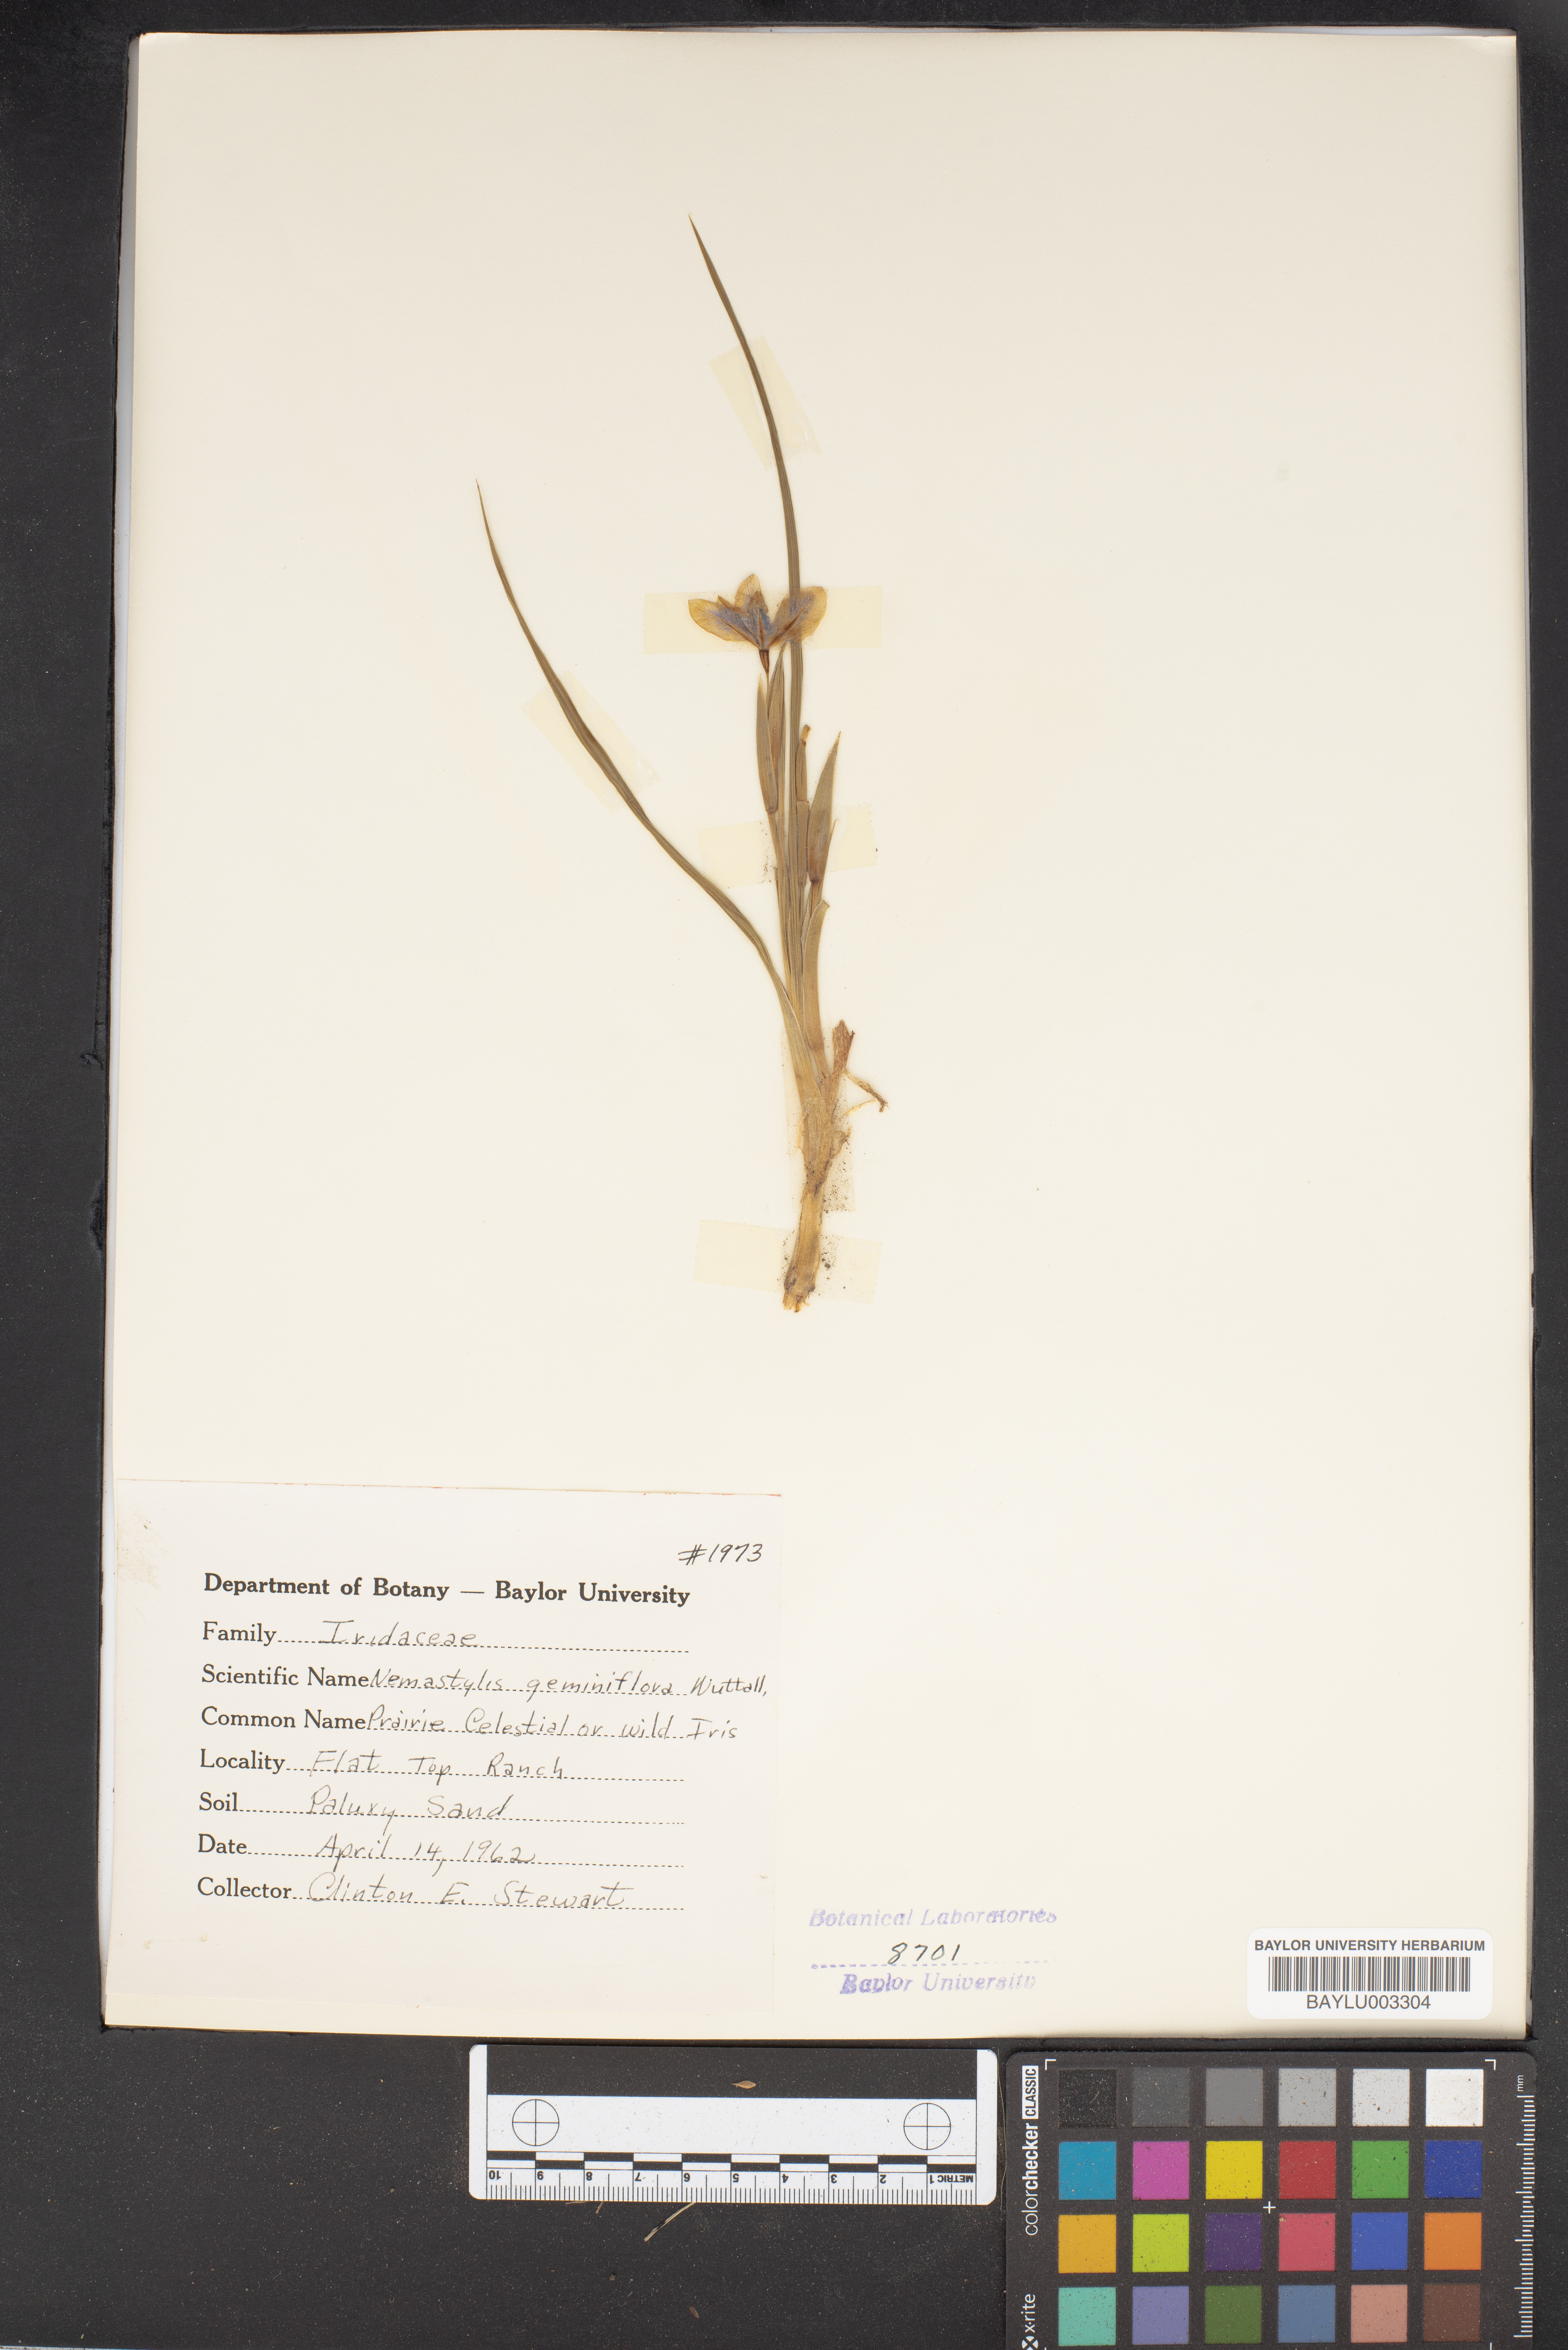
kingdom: Plantae
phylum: Tracheophyta
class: Liliopsida
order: Asparagales
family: Iridaceae
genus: Nemastylis
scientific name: Nemastylis geminiflora
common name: Prairie celestial
